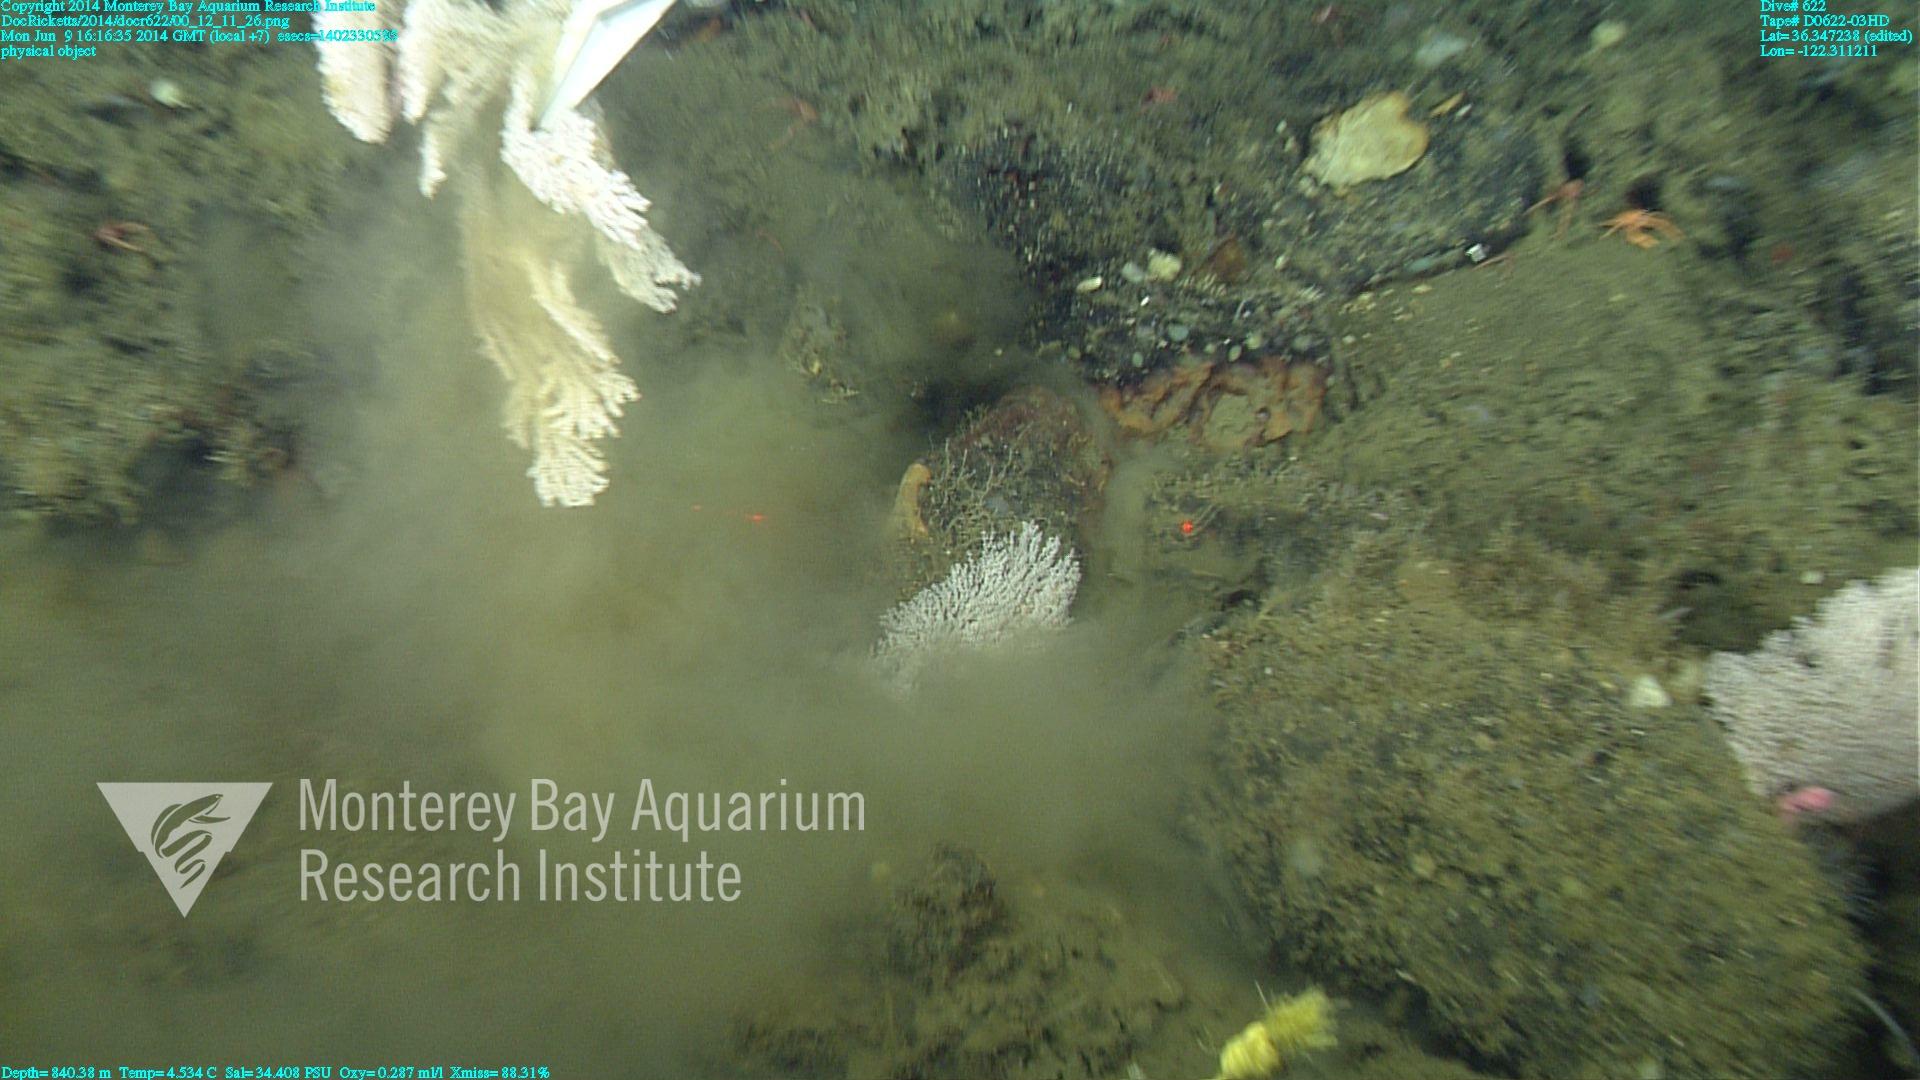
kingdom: Animalia
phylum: Cnidaria
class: Anthozoa
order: Scleralcyonacea
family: Primnoidae
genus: Parastenella
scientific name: Parastenella
